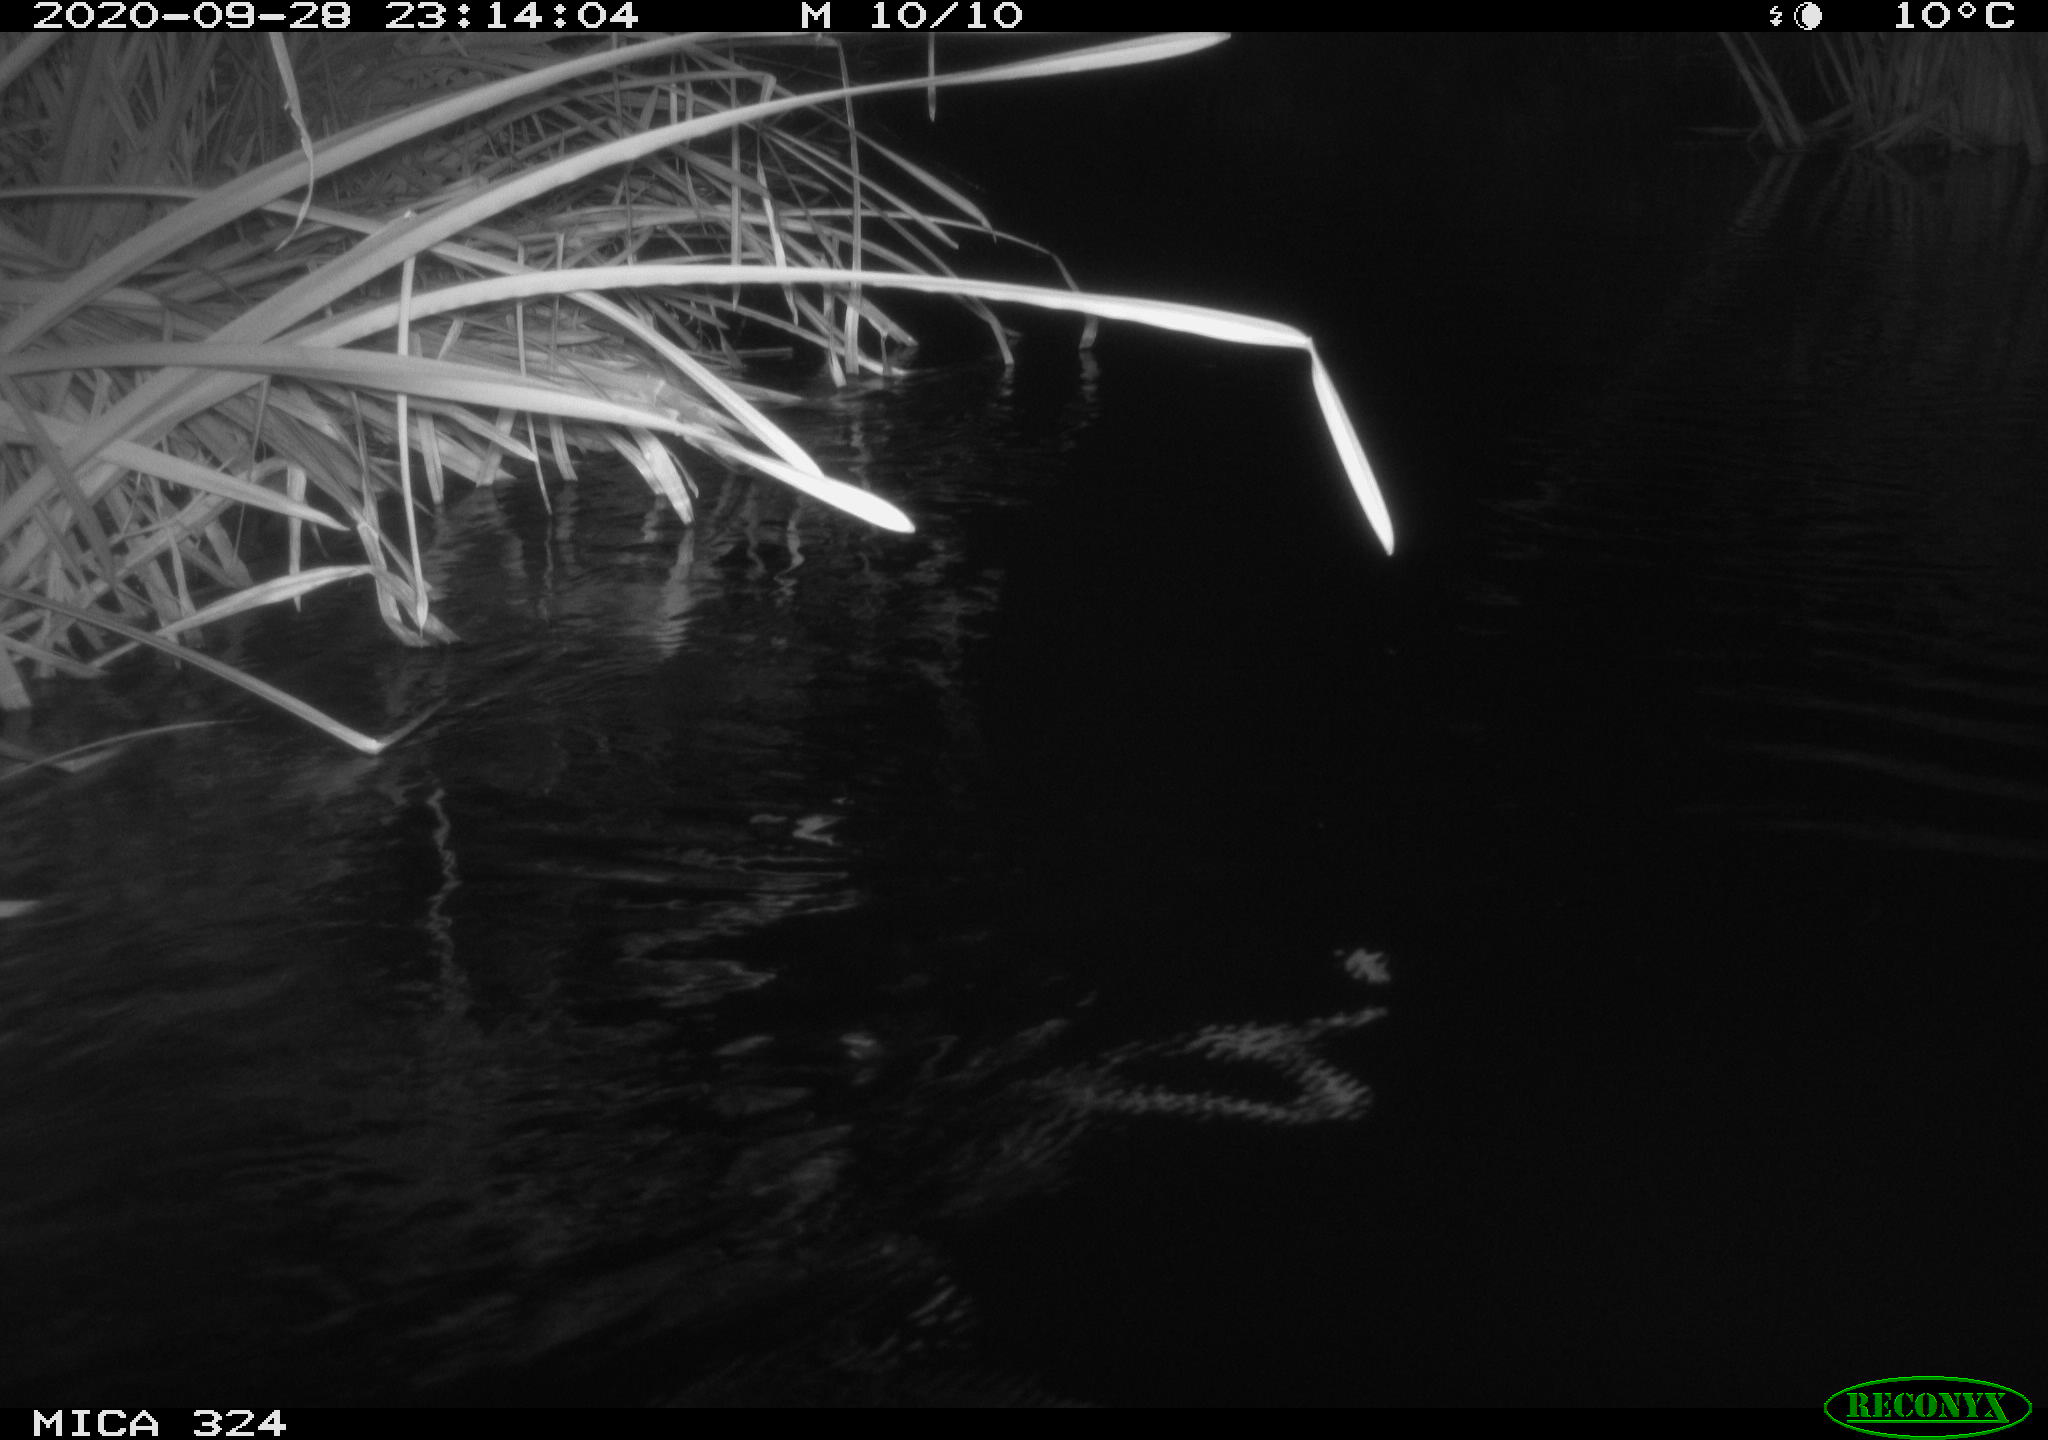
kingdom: Animalia
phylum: Chordata
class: Mammalia
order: Rodentia
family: Cricetidae
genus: Ondatra
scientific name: Ondatra zibethicus
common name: Muskrat
